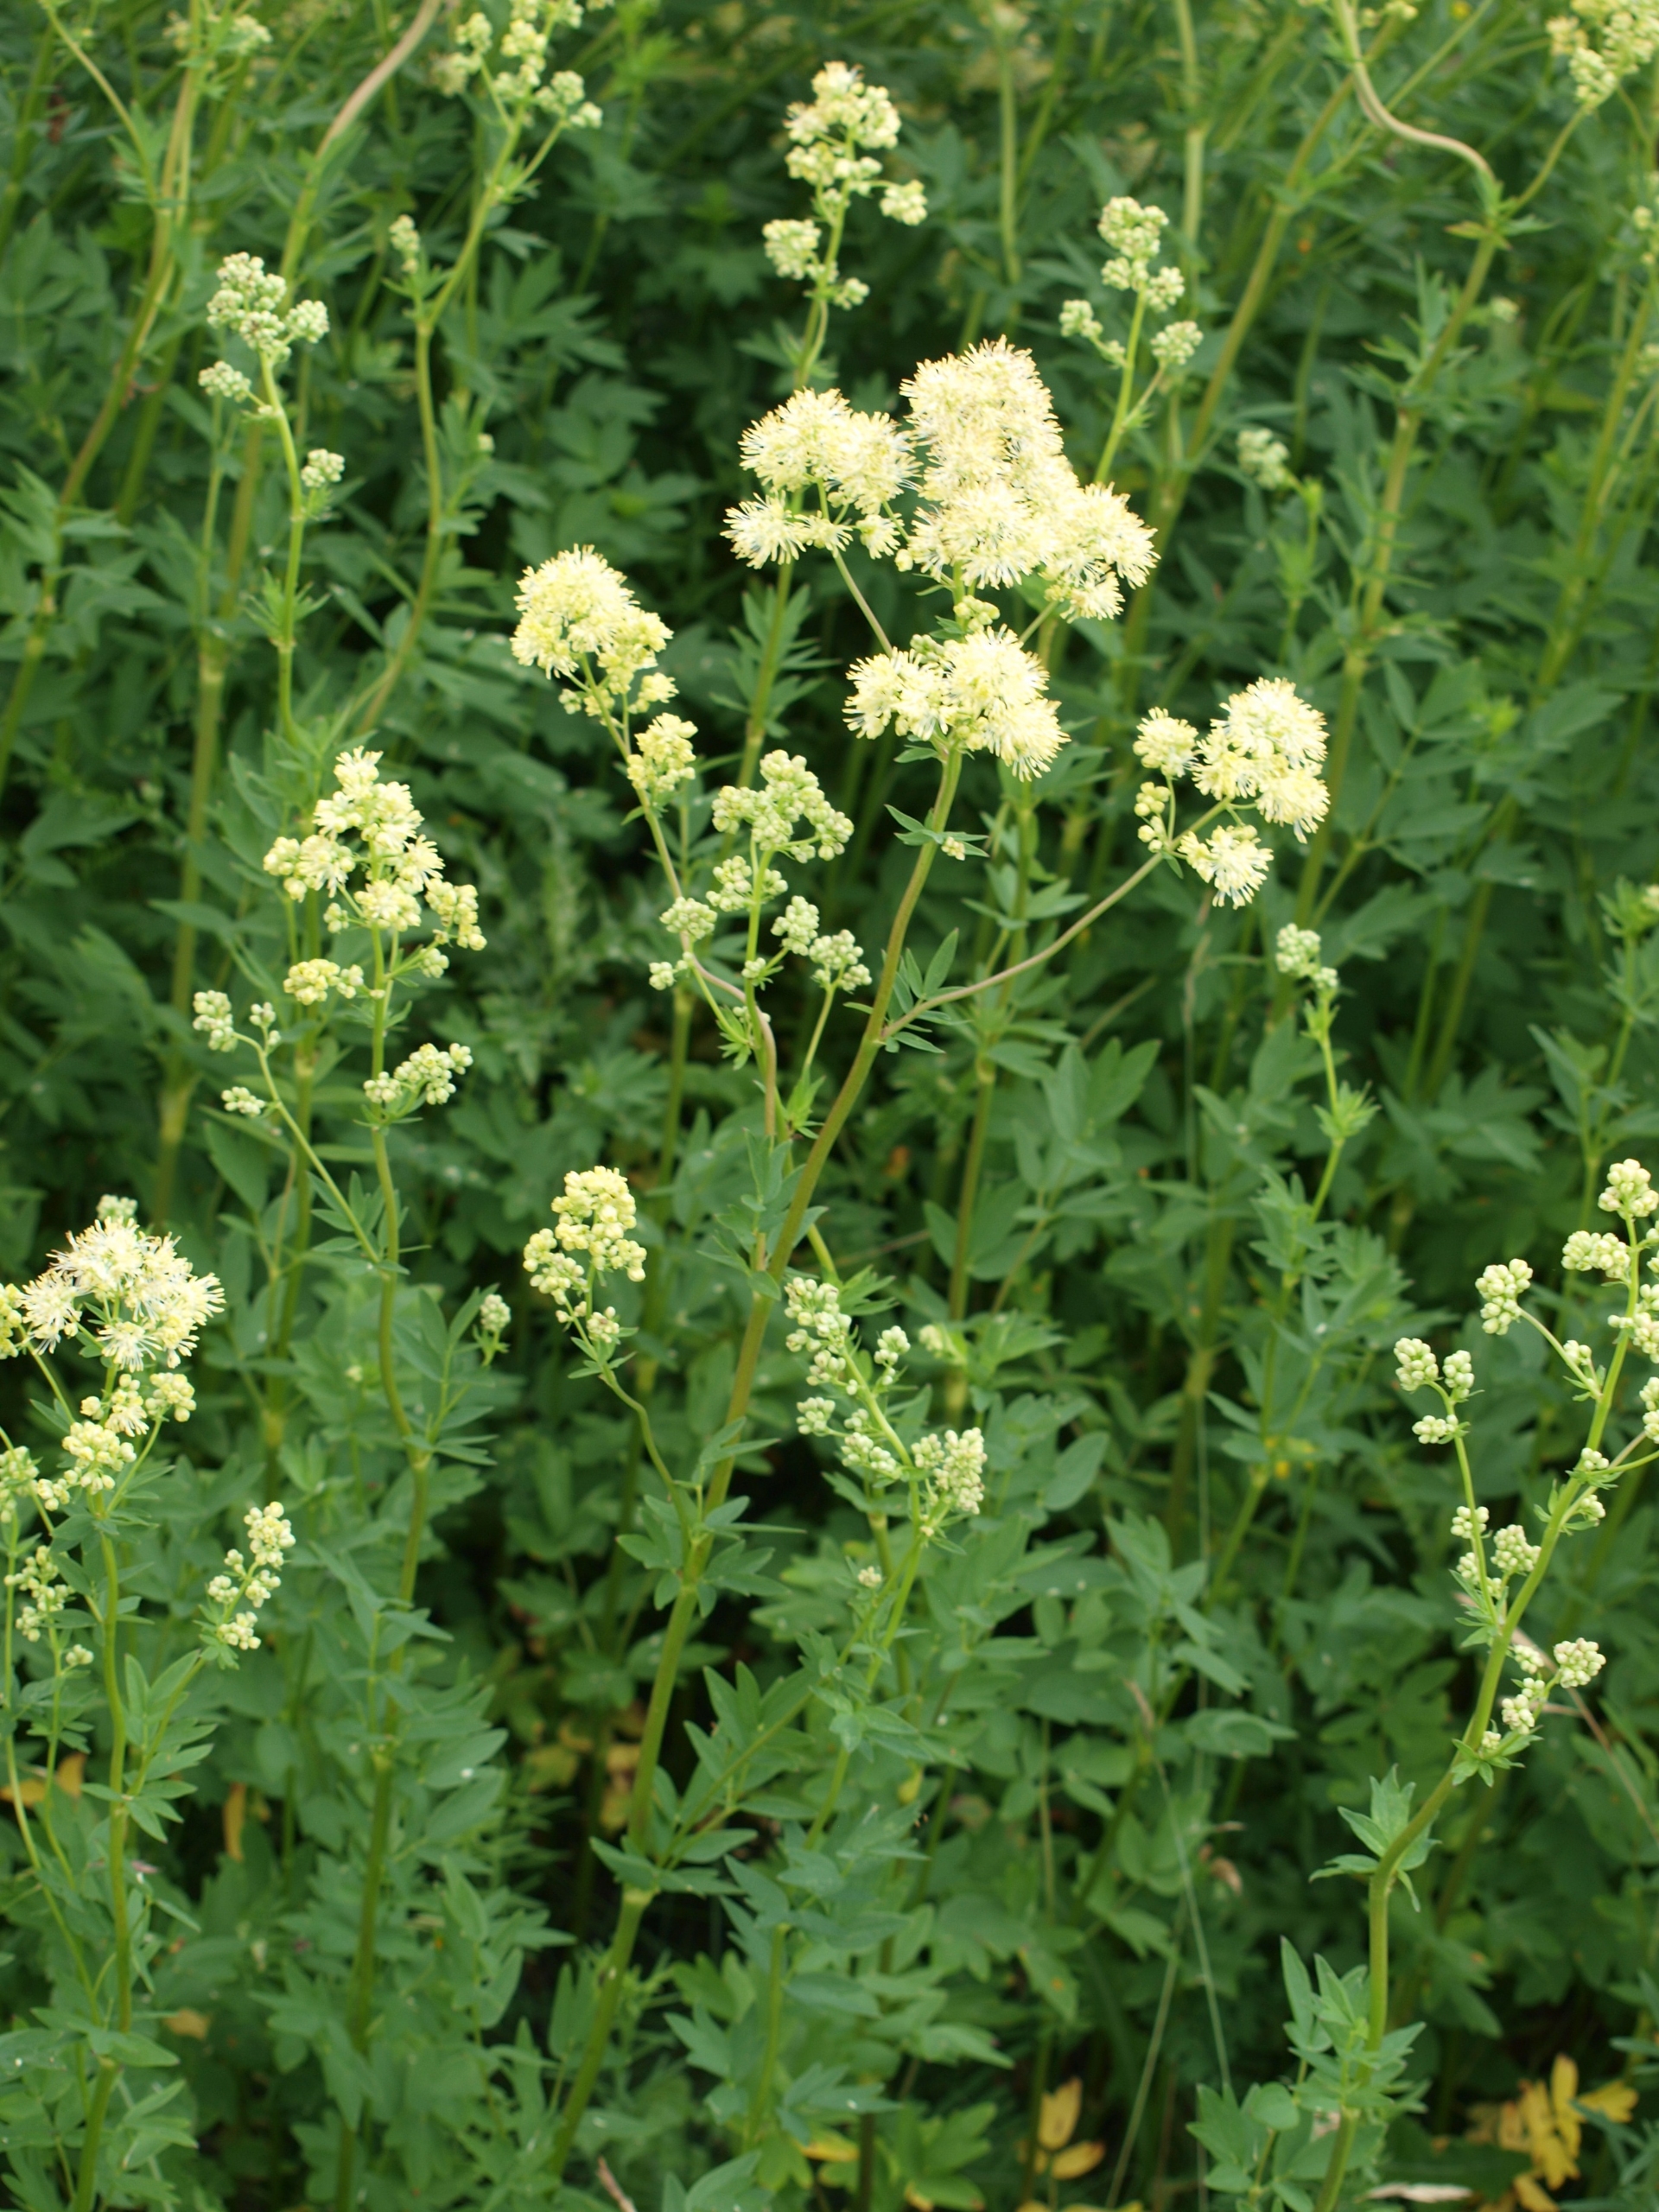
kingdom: Plantae
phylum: Tracheophyta
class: Magnoliopsida
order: Ranunculales
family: Ranunculaceae
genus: Thalictrum
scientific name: Thalictrum flavum
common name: Gul frøstjerne
